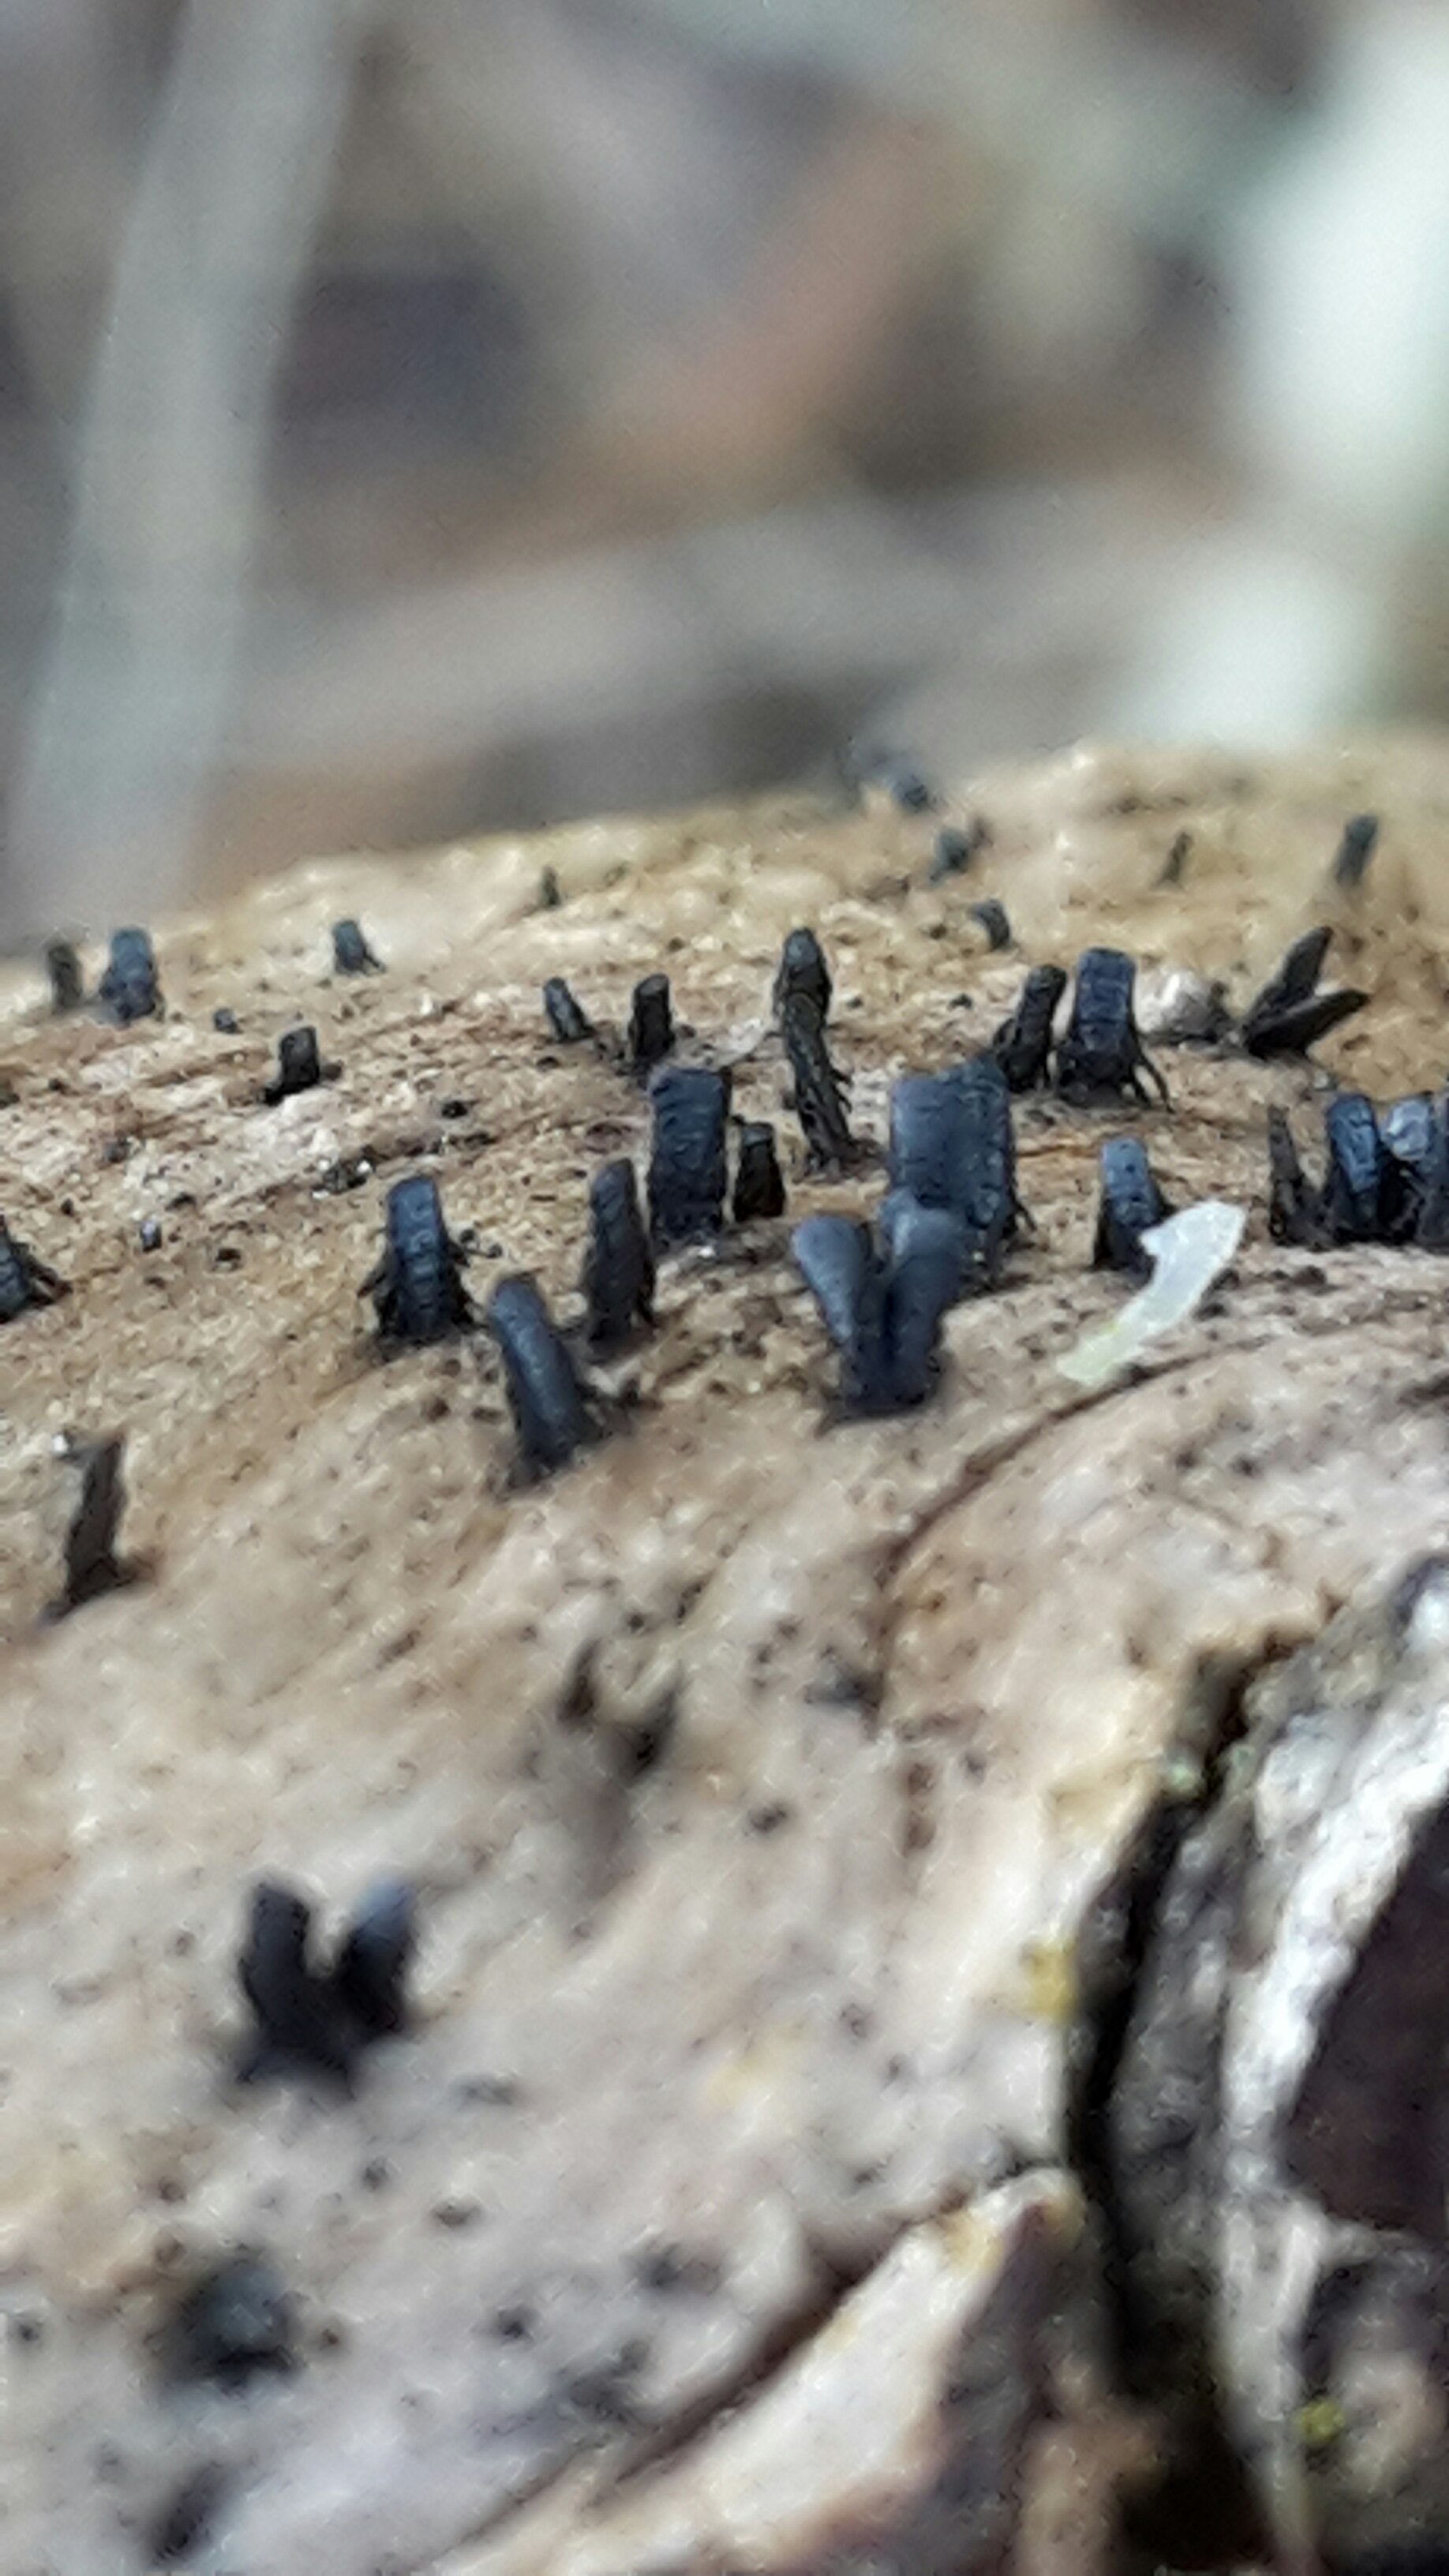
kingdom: Fungi
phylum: Ascomycota
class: Eurotiomycetes
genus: Glyphium
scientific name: Glyphium elatum
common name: kuløkse
